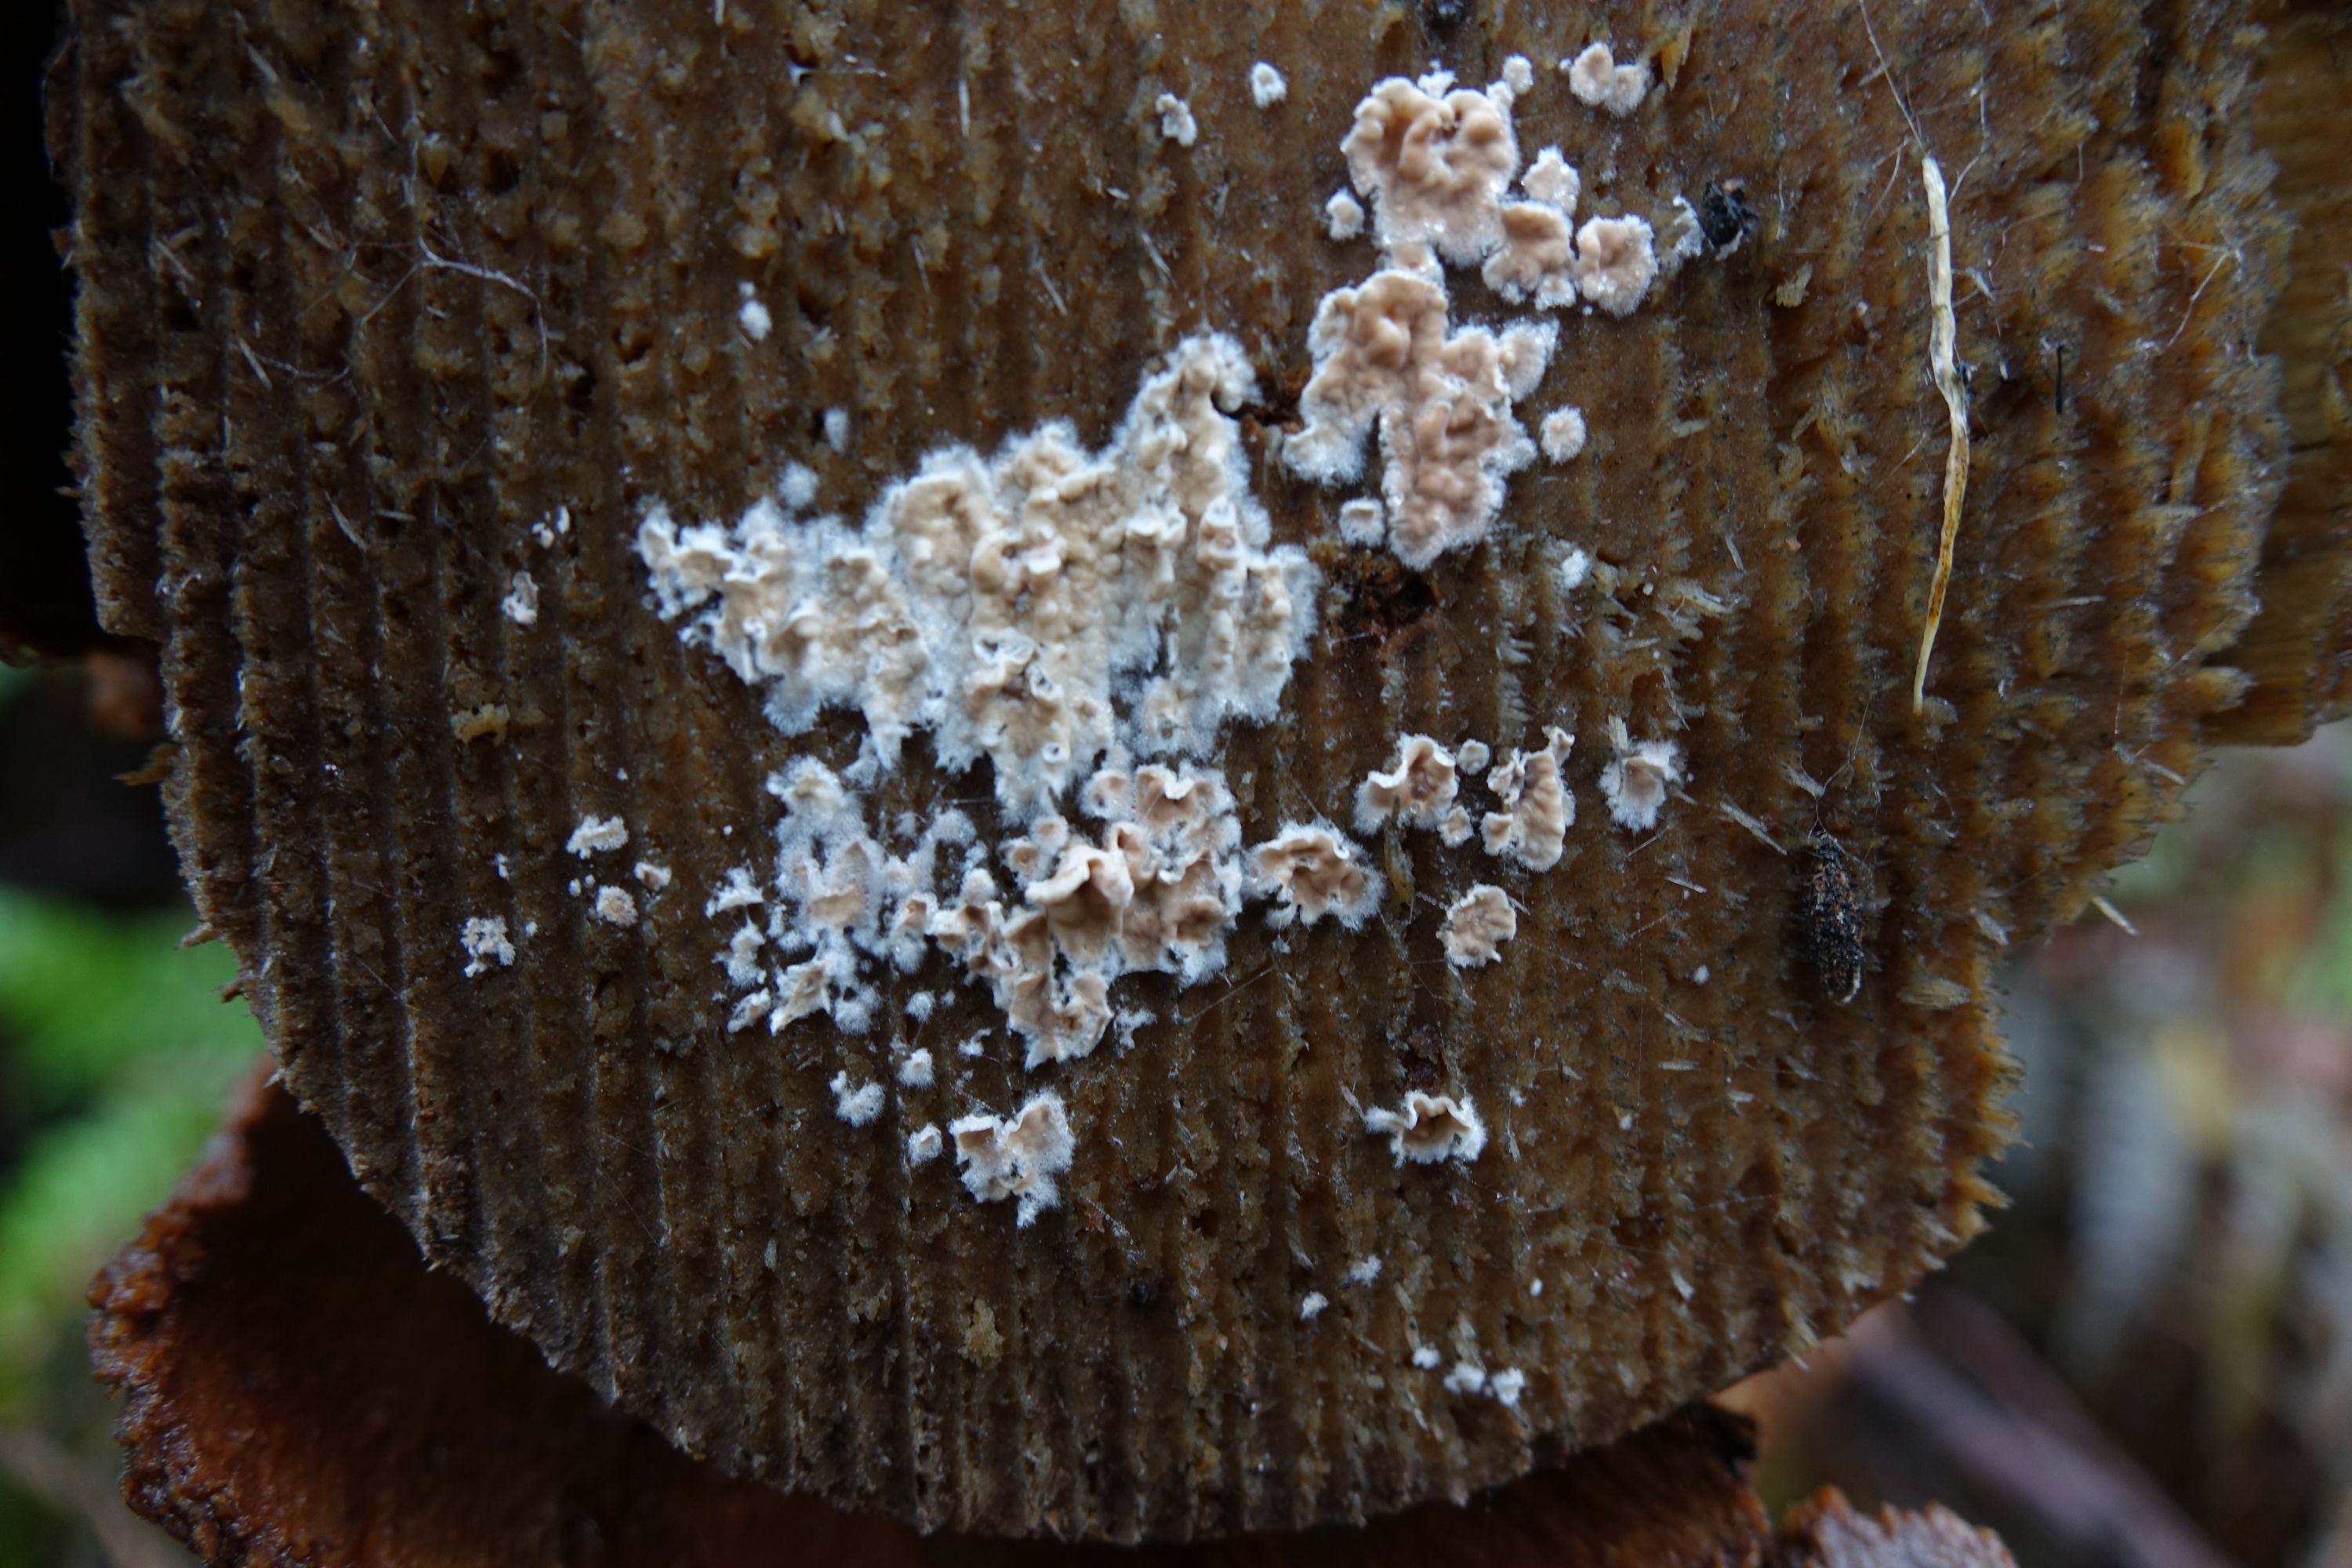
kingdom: Fungi
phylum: Basidiomycota
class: Agaricomycetes
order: Agaricales
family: Physalacriaceae
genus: Cylindrobasidium
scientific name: Cylindrobasidium evolvens
